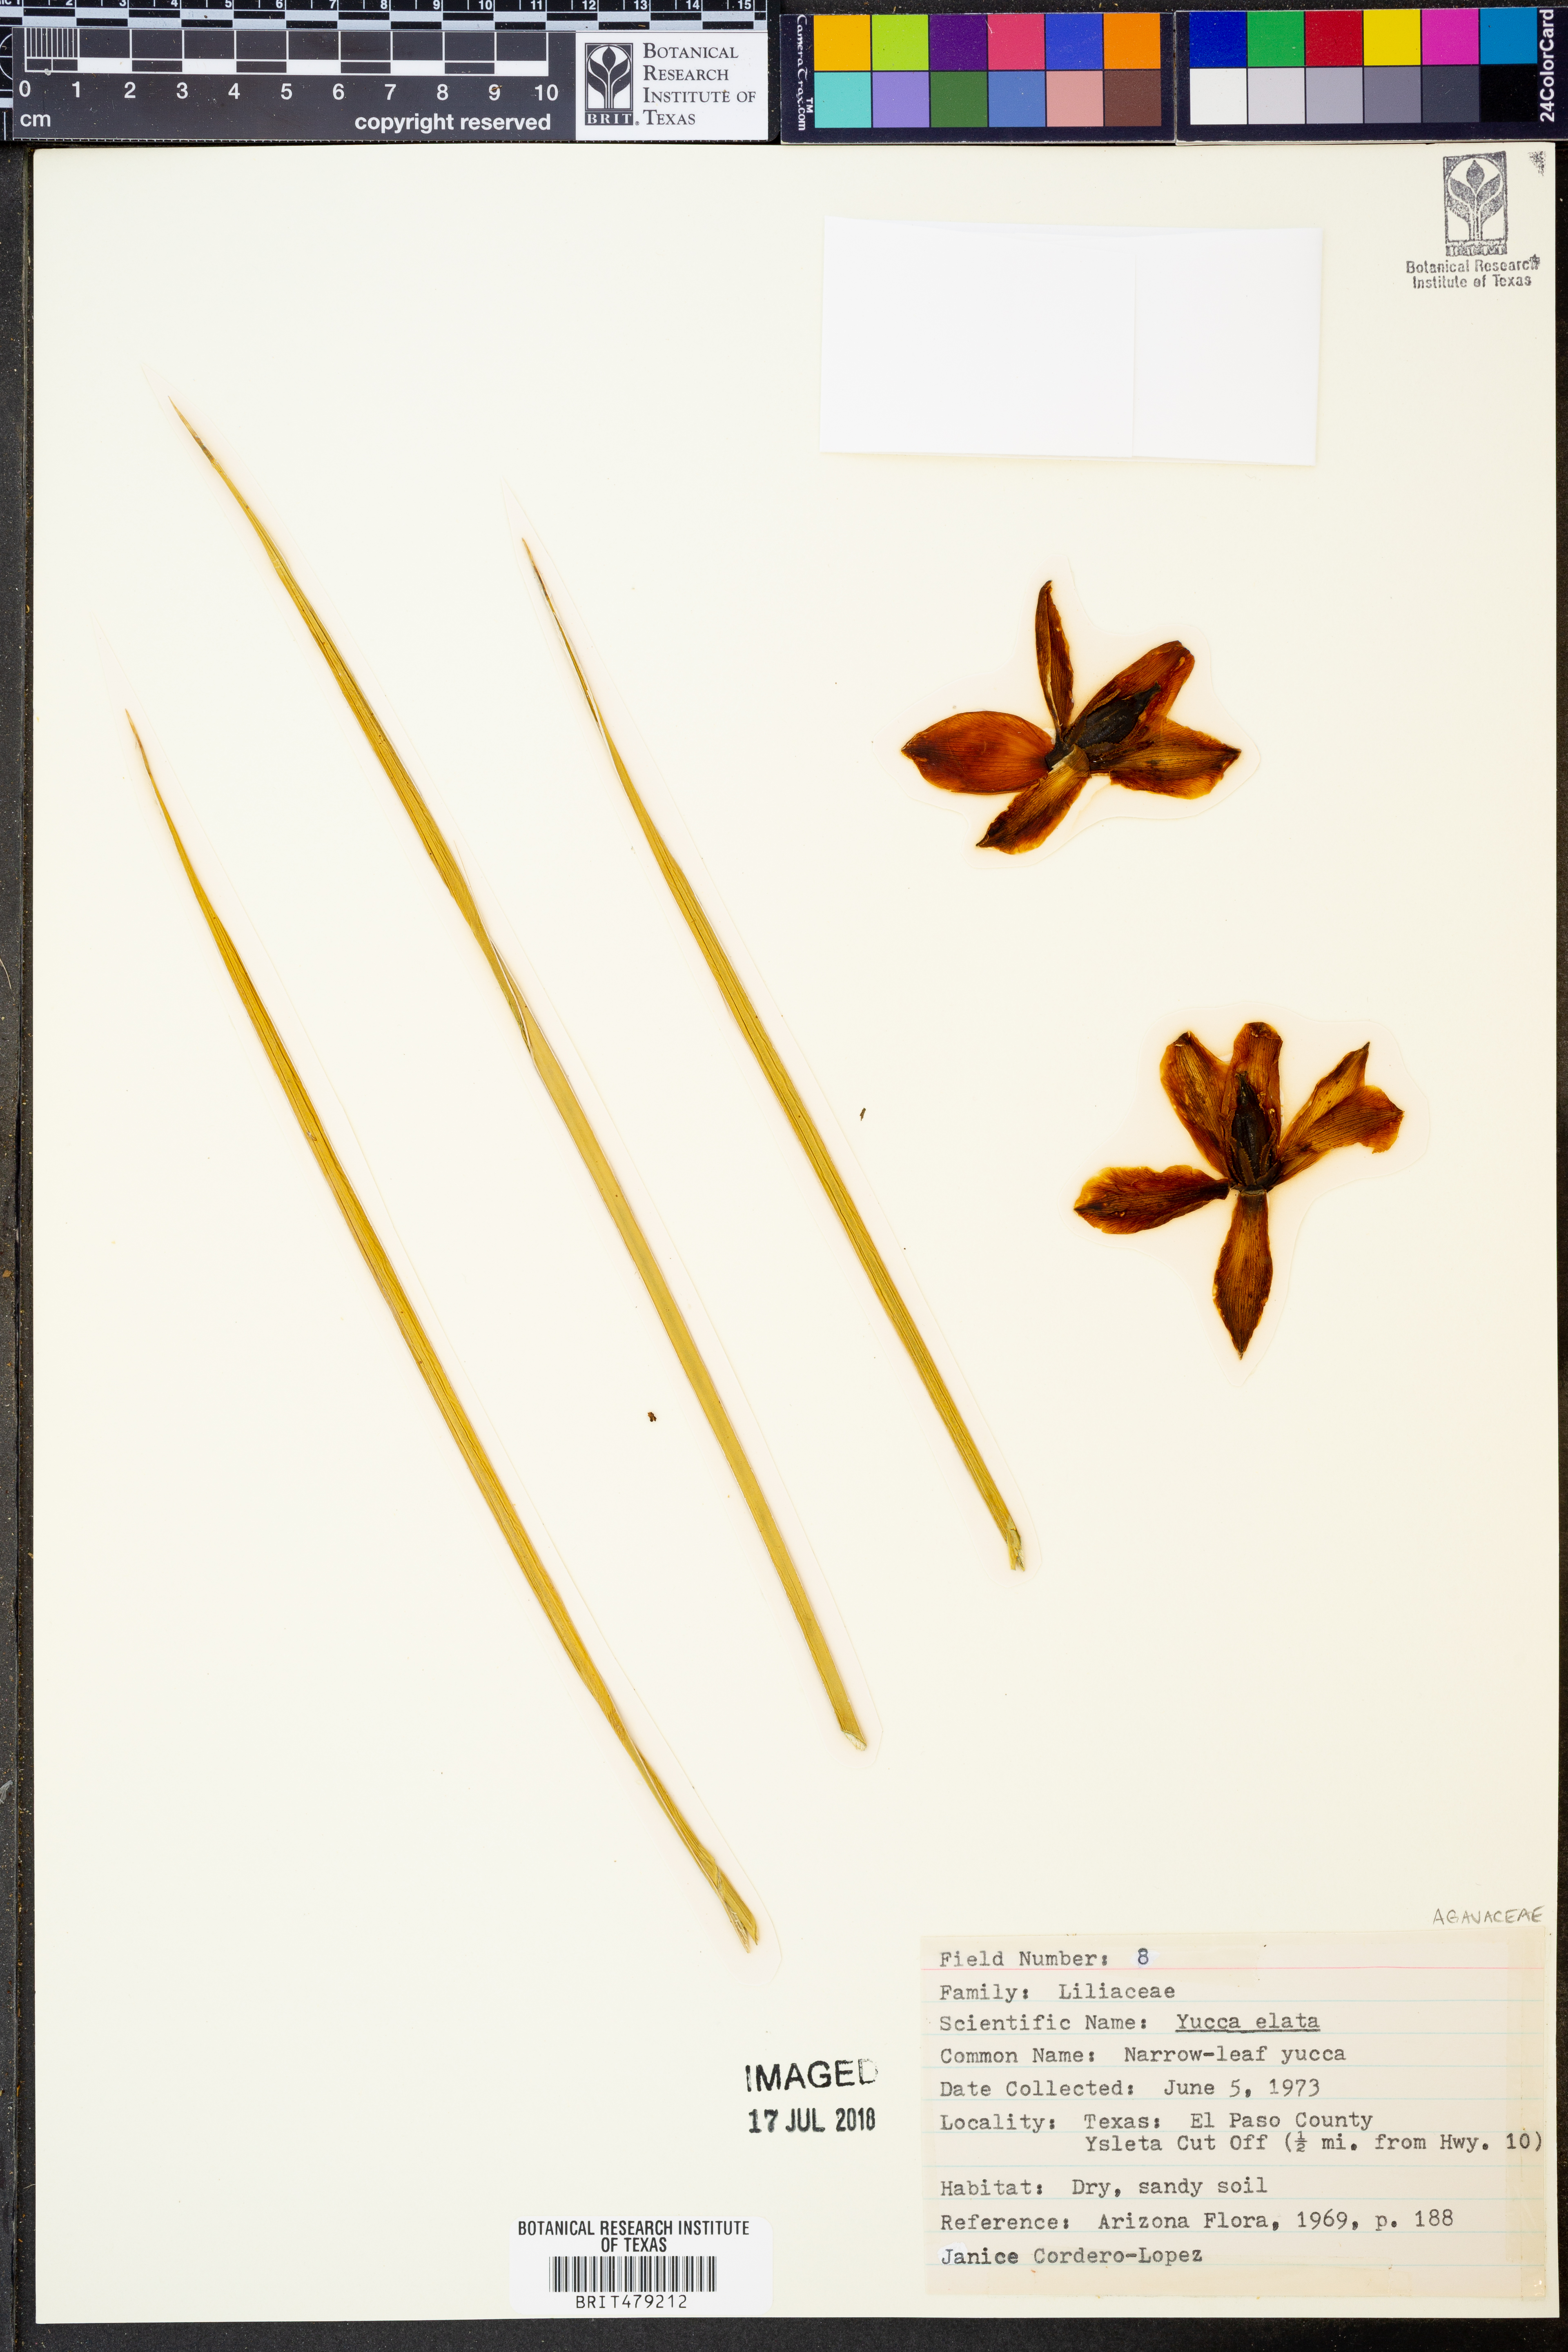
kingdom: Plantae
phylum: Tracheophyta
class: Liliopsida
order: Asparagales
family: Asparagaceae
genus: Yucca
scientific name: Yucca elata
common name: Palmella
